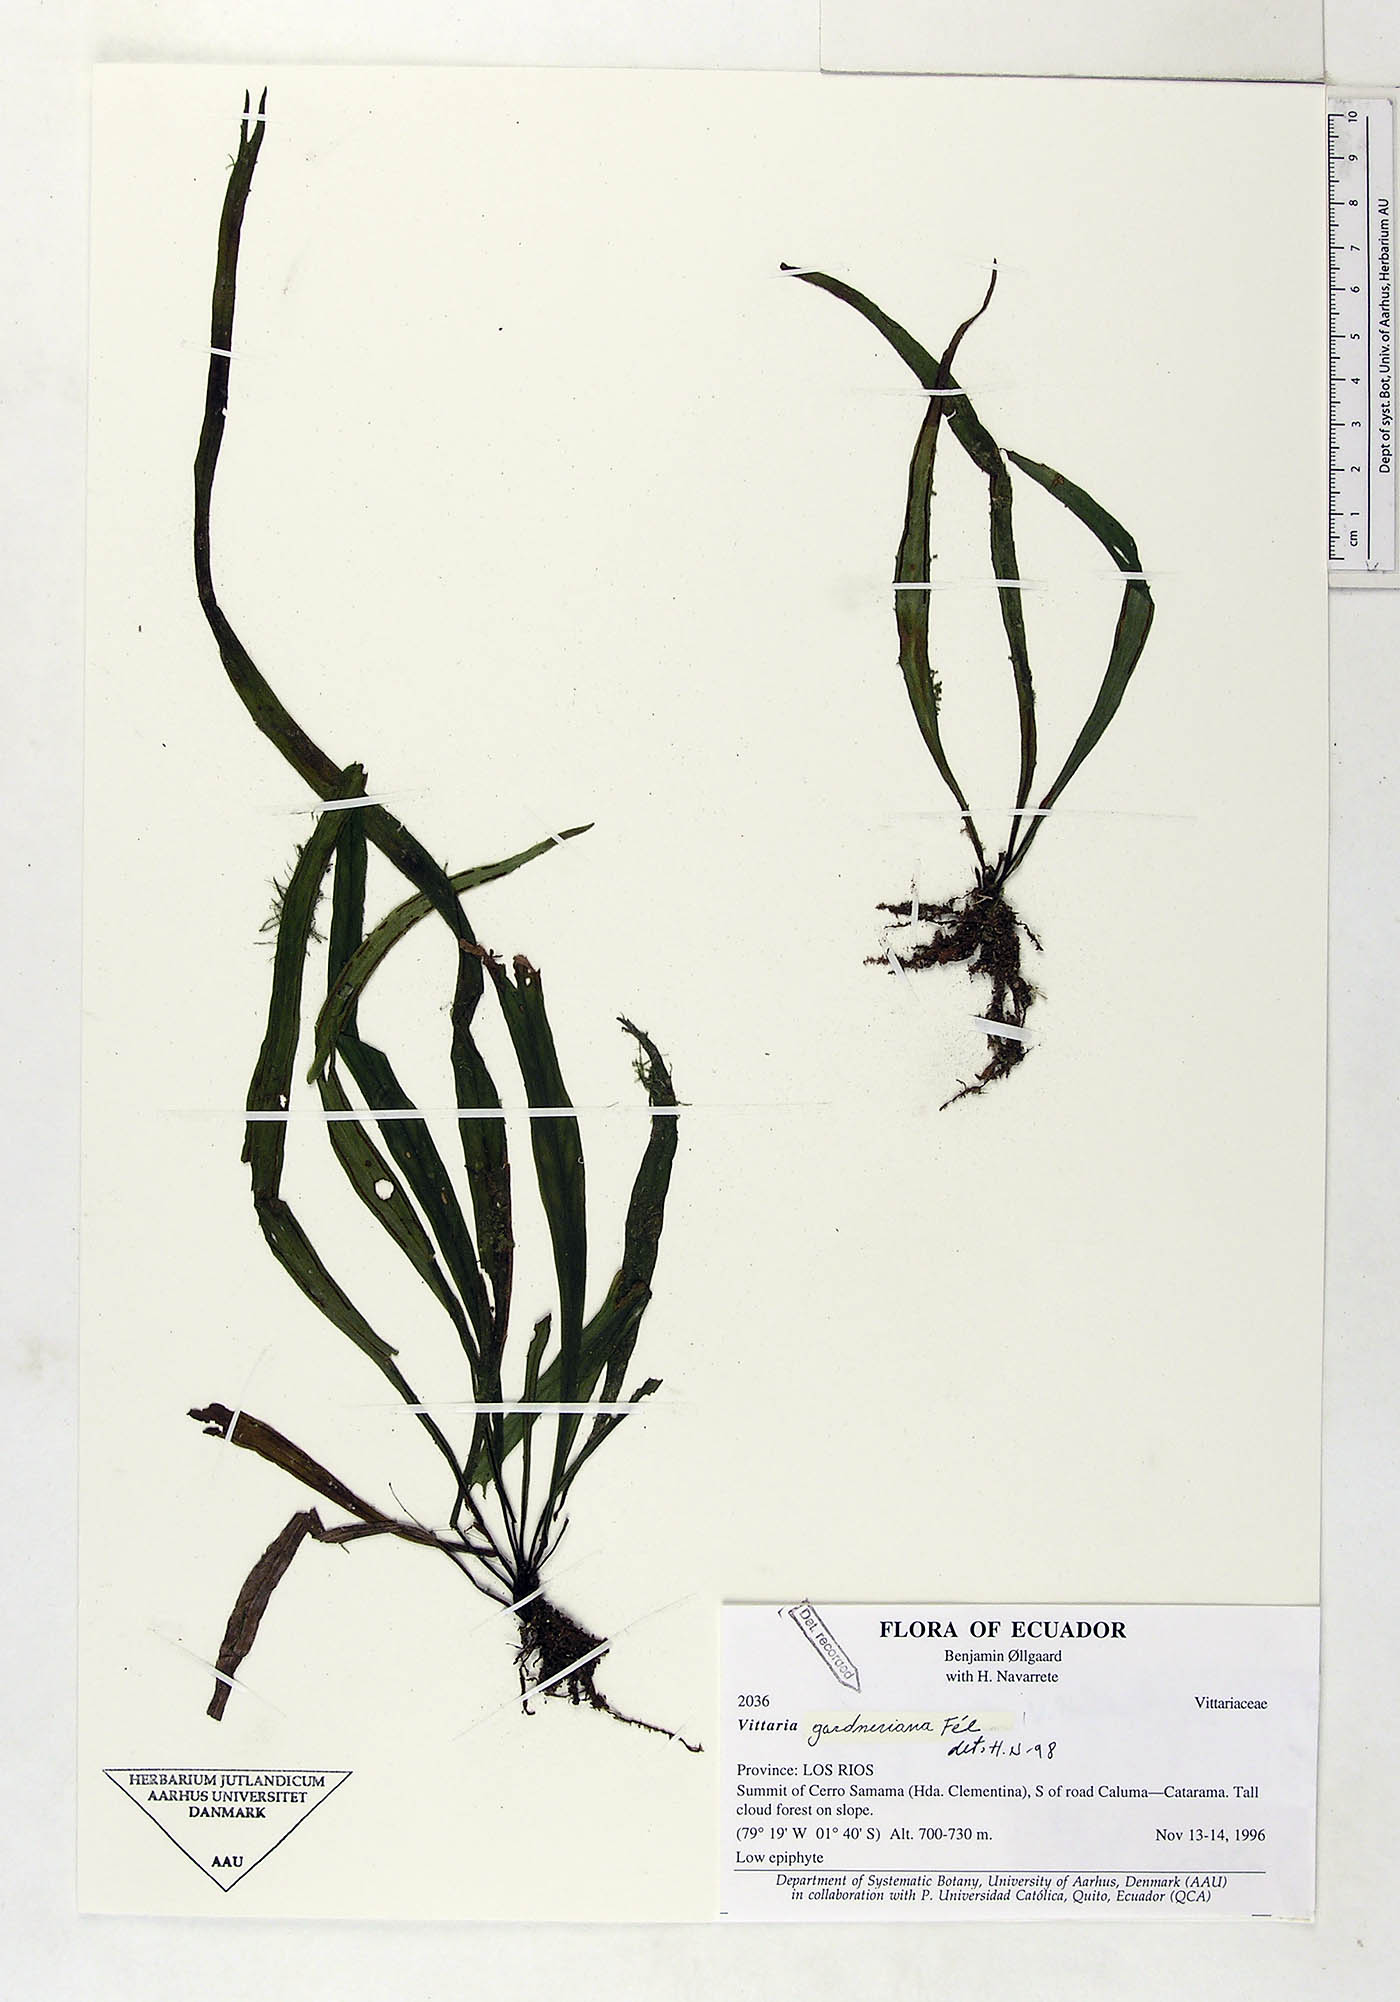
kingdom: Plantae
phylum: Tracheophyta
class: Polypodiopsida
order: Polypodiales
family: Pteridaceae
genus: Radiovittaria
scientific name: Radiovittaria gardneriana
